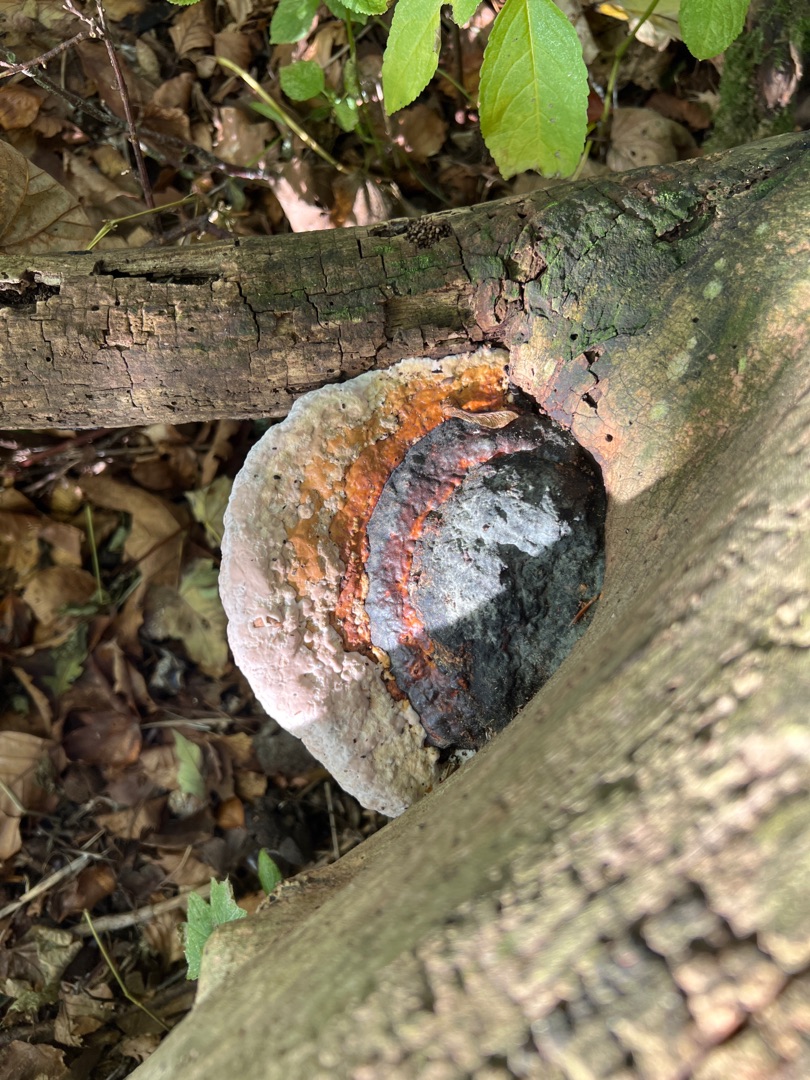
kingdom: Fungi
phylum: Basidiomycota
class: Agaricomycetes
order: Polyporales
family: Fomitopsidaceae
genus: Fomitopsis
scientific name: Fomitopsis pinicola
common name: Randbæltet hovporesvamp
